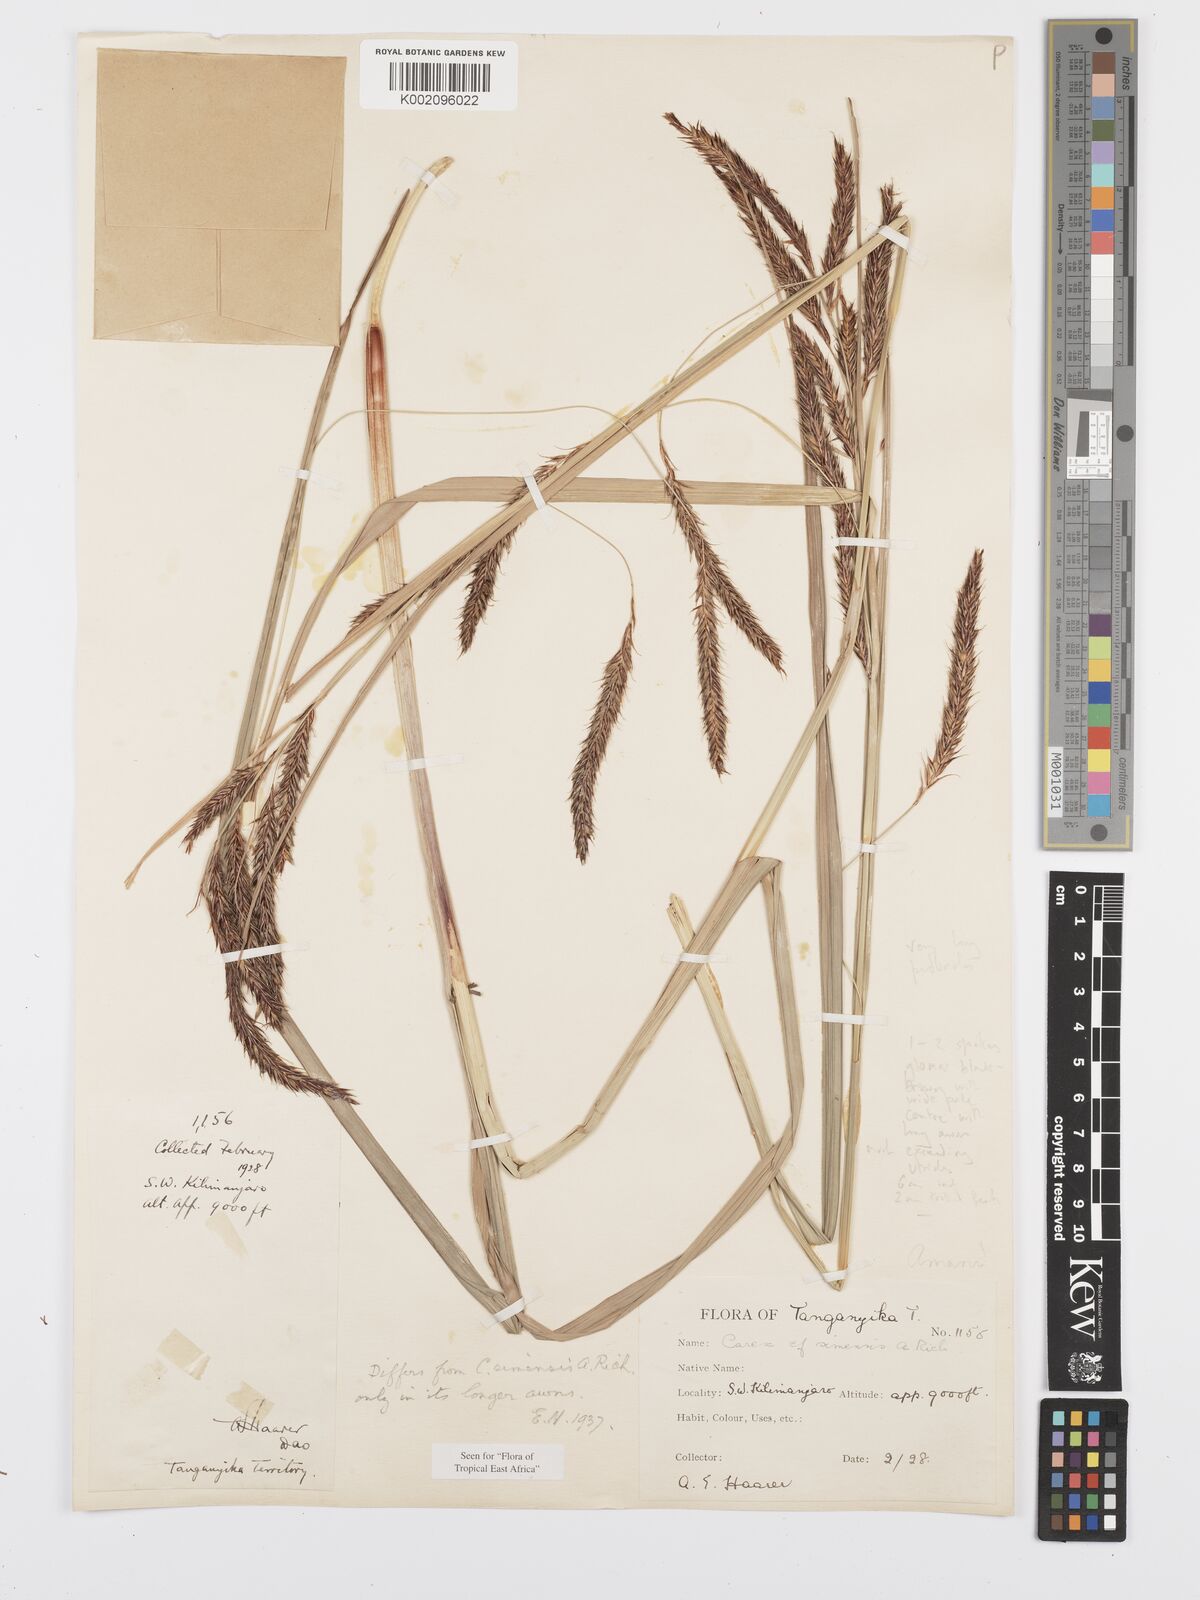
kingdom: Plantae
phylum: Tracheophyta
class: Liliopsida
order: Poales
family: Cyperaceae
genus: Carex
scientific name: Carex simensis
